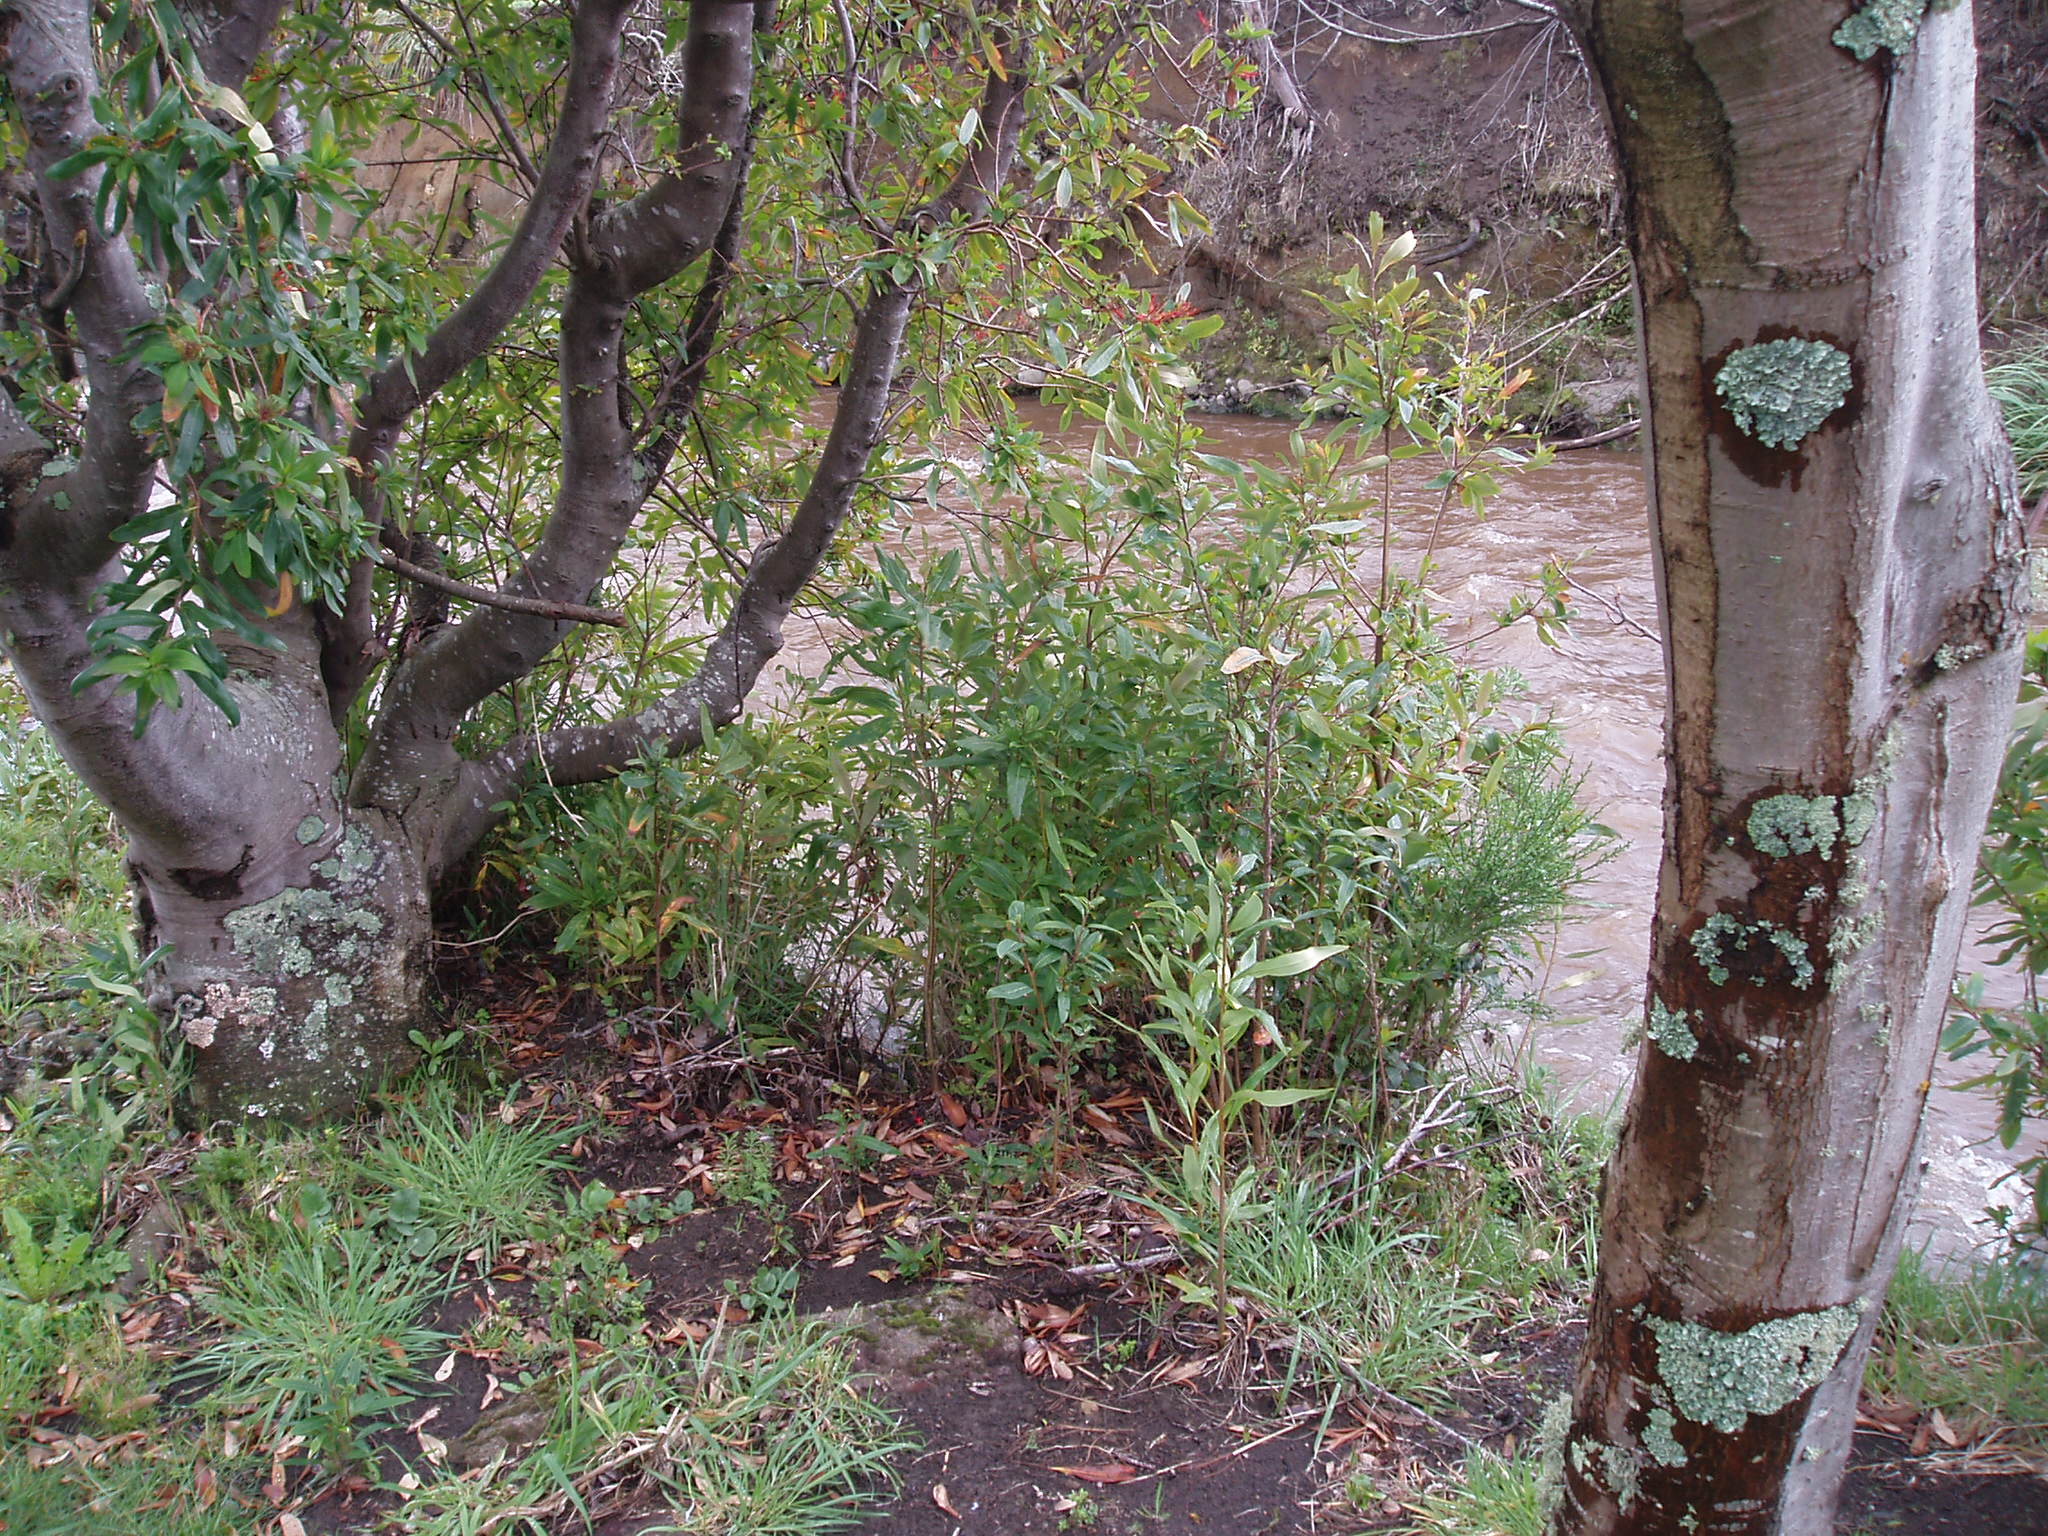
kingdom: Plantae
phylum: Tracheophyta
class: Magnoliopsida
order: Proteales
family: Proteaceae
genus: Embothrium
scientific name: Embothrium coccineum
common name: Chilean firebush
